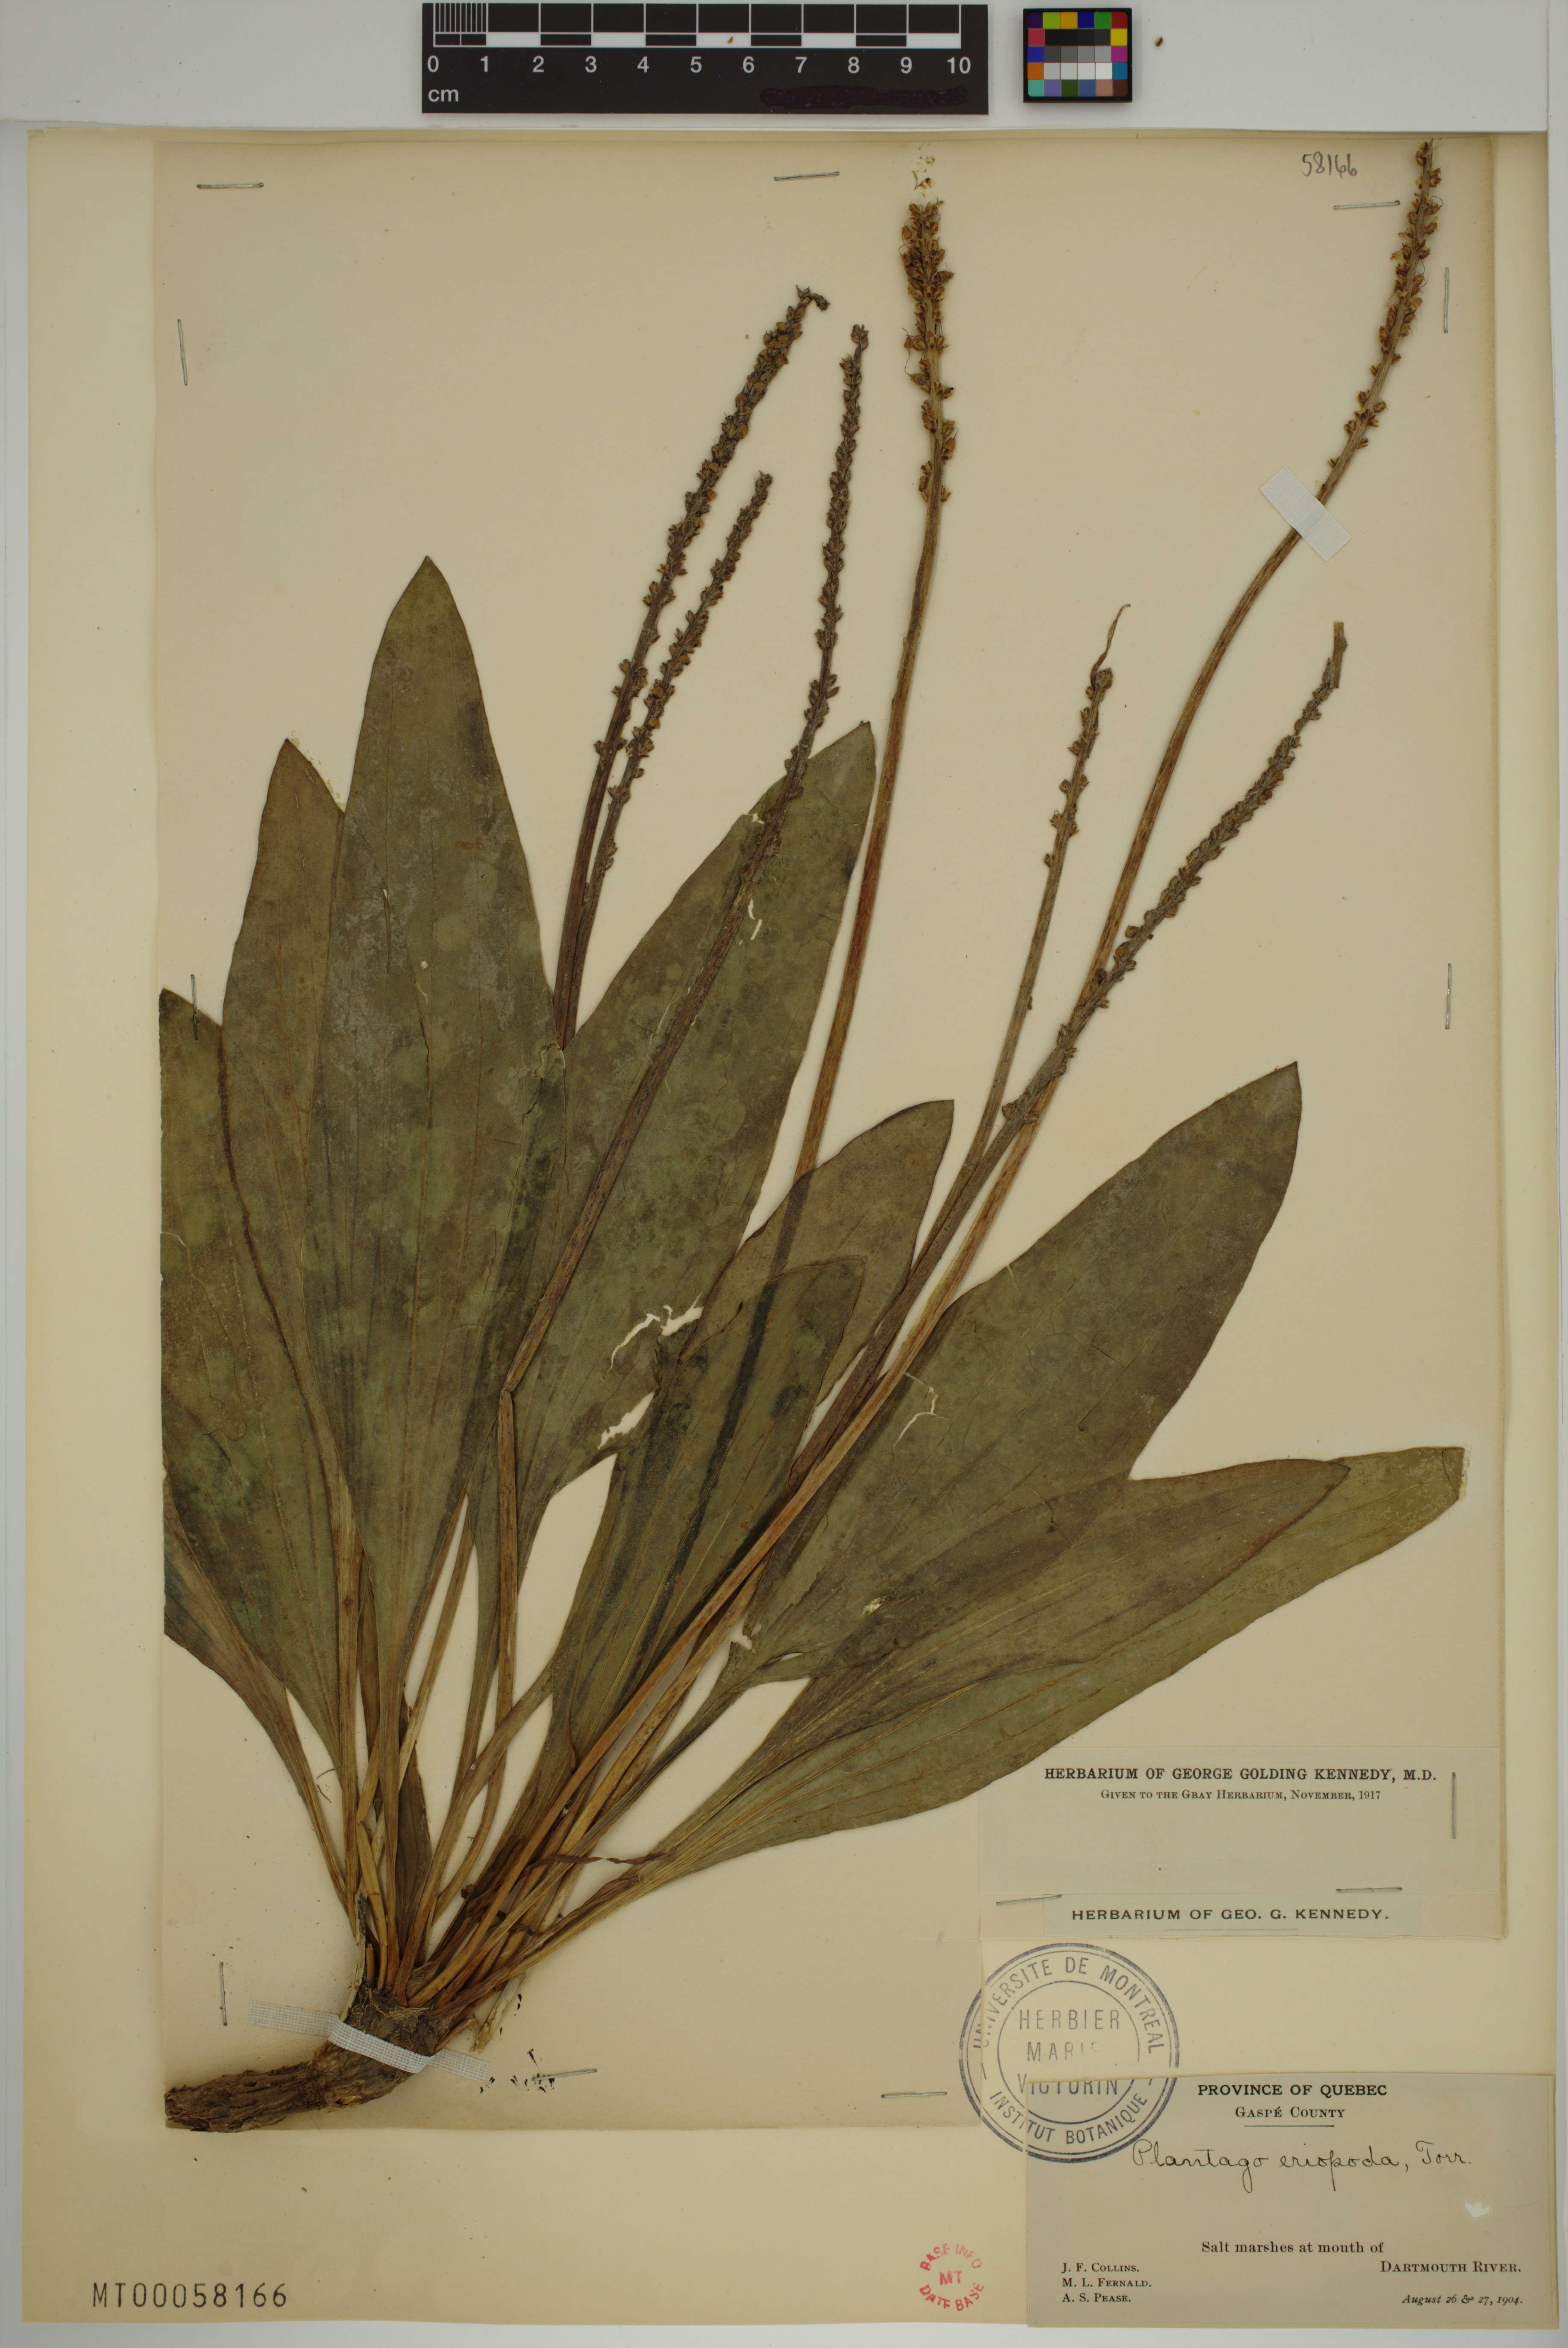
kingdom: Plantae
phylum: Tracheophyta
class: Magnoliopsida
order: Lamiales
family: Plantaginaceae
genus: Plantago
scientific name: Plantago eriopoda
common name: Alkali plantain
